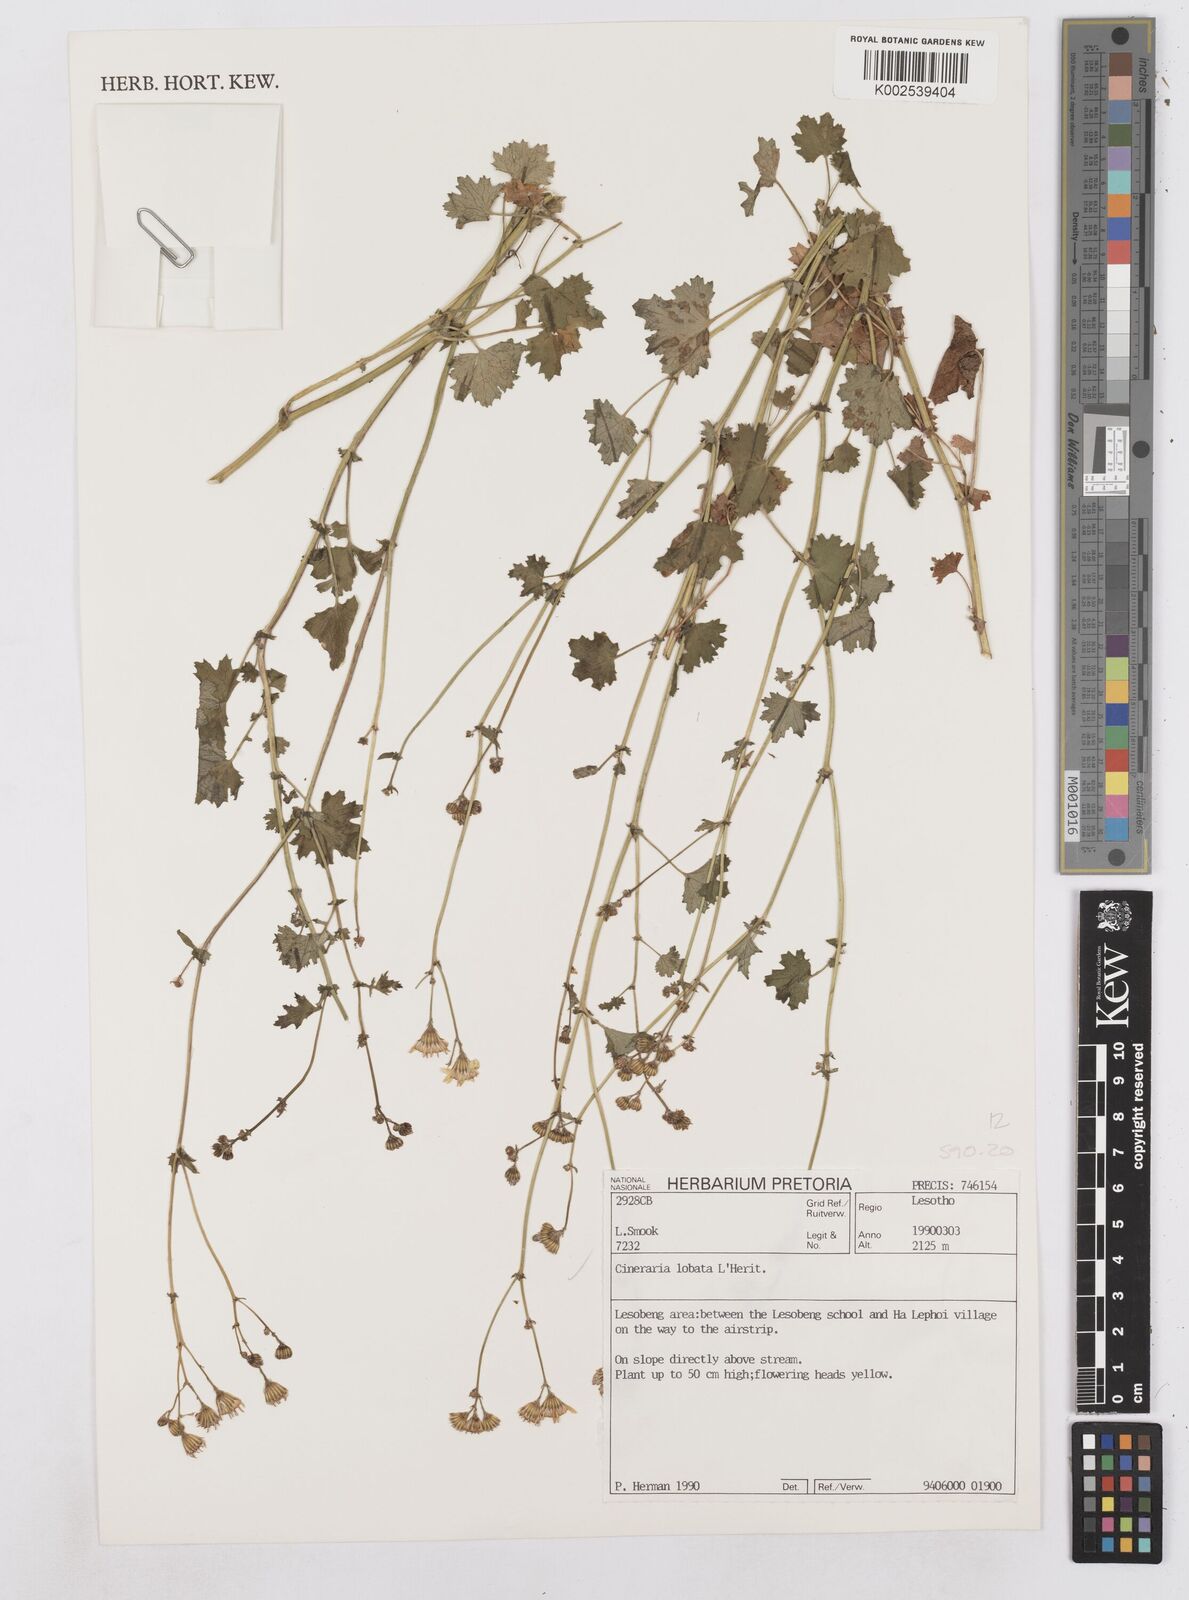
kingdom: Plantae
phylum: Tracheophyta
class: Magnoliopsida
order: Asterales
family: Asteraceae
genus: Cineraria
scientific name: Cineraria
